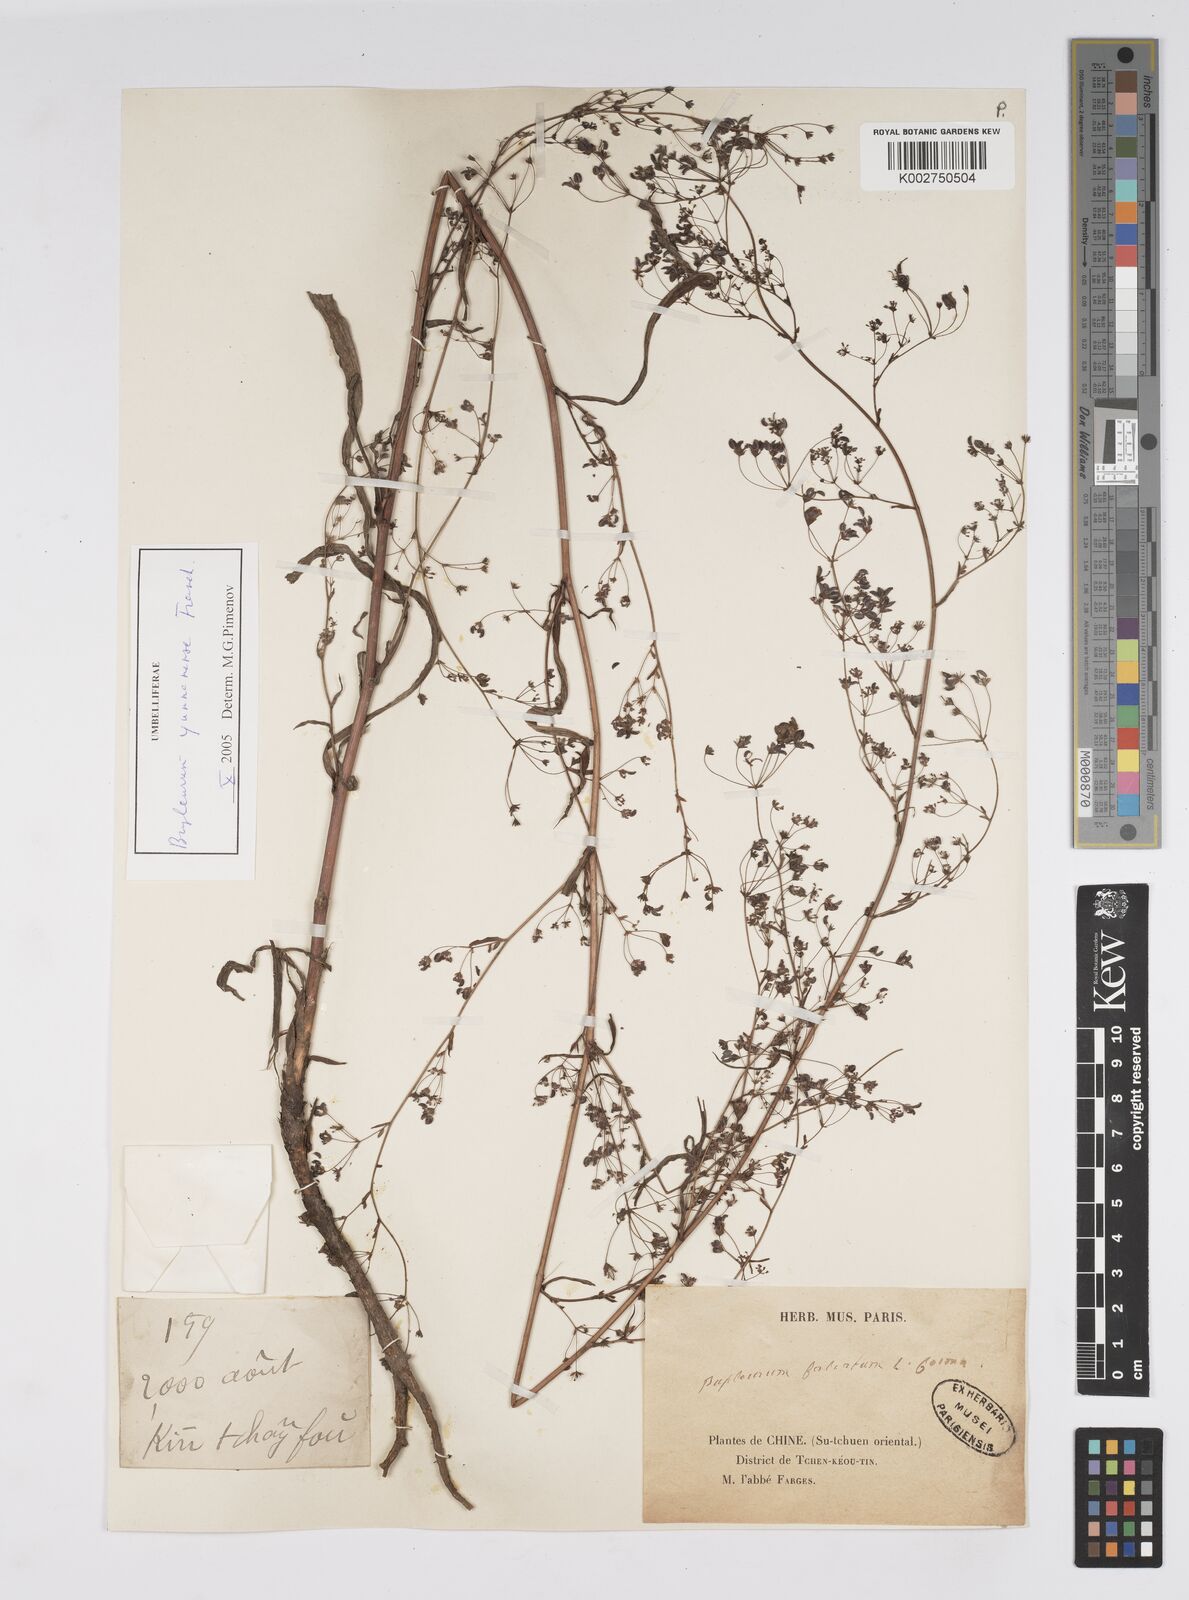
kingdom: Plantae
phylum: Tracheophyta
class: Magnoliopsida
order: Apiales
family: Apiaceae
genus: Bupleurum
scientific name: Bupleurum krylovianum
